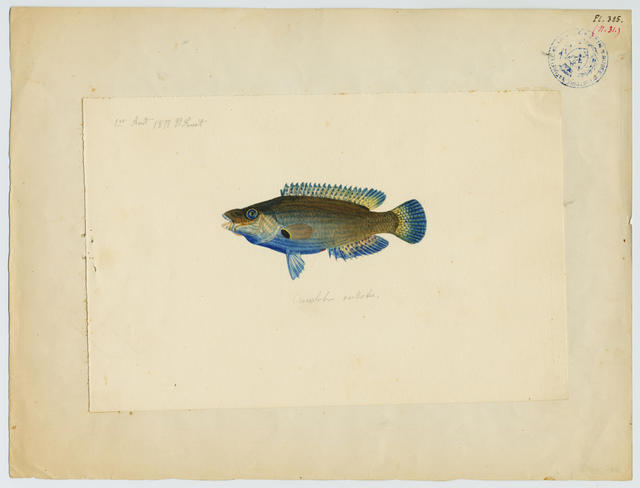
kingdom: Animalia
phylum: Chordata
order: Perciformes
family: Labridae
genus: Symphodus
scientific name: Symphodus mediterraneus
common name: Axillary wrasse
